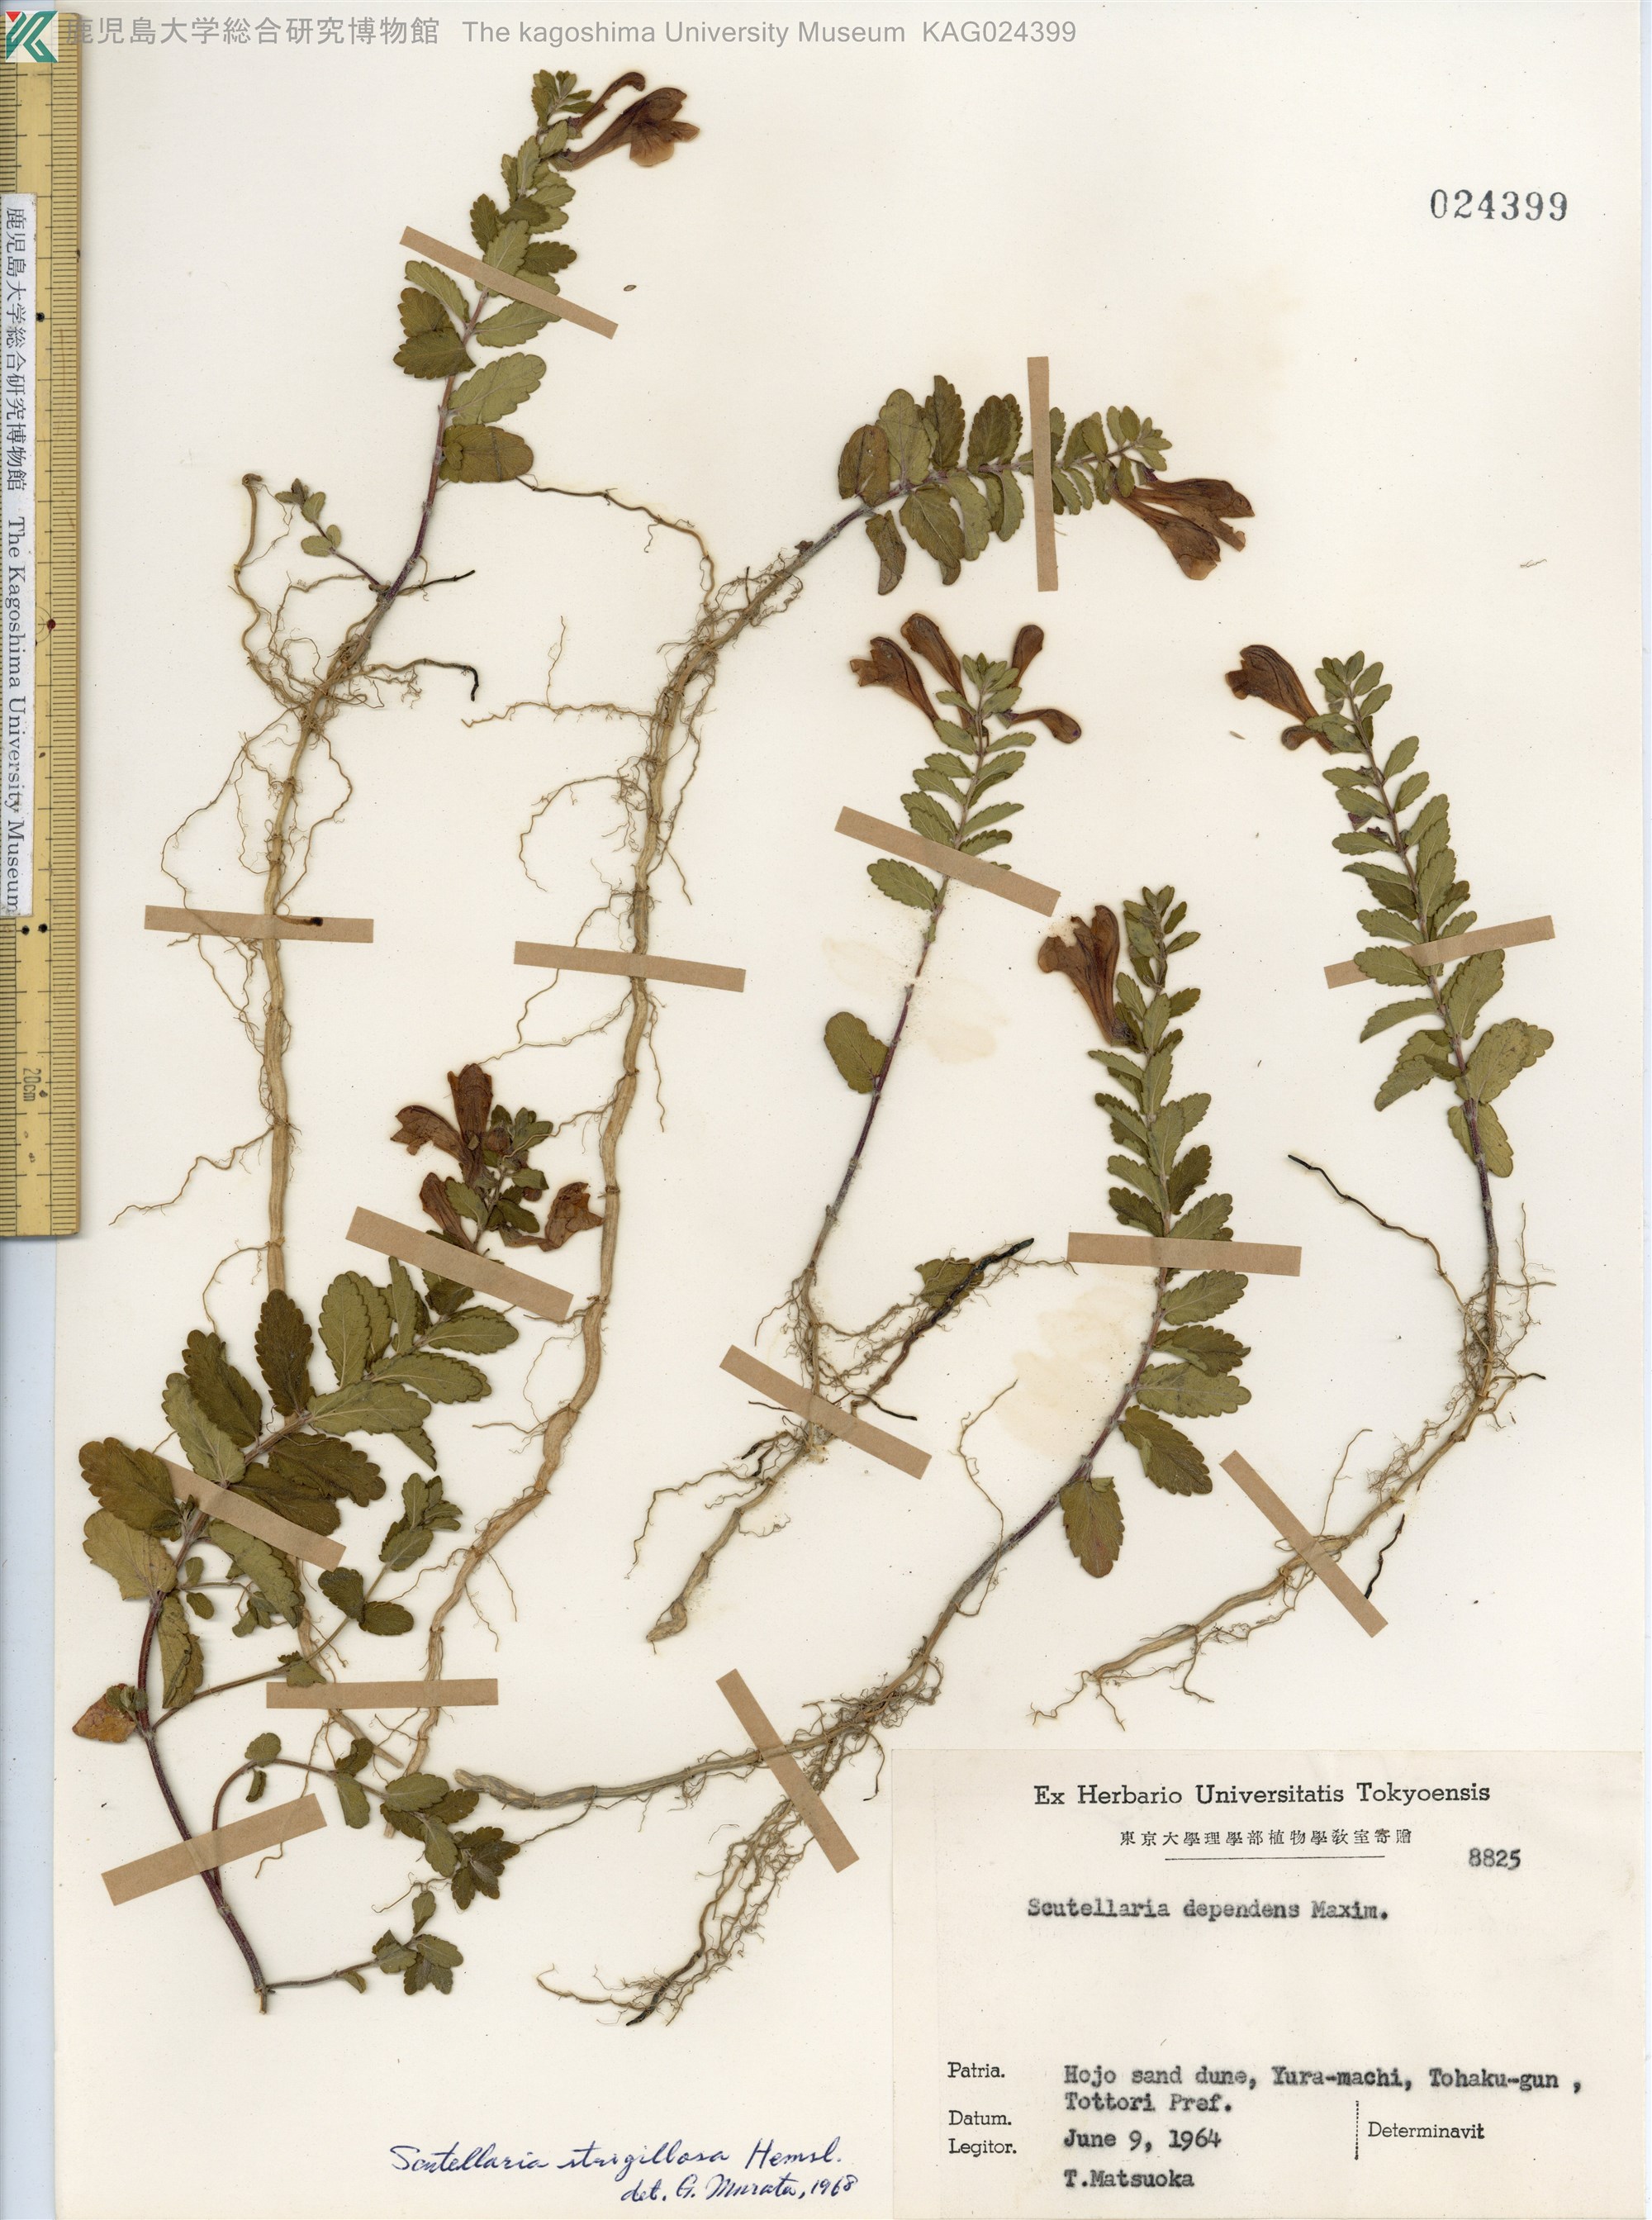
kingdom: Plantae
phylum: Tracheophyta
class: Magnoliopsida
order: Lamiales
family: Lamiaceae
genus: Scutellaria
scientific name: Scutellaria strigillosa
